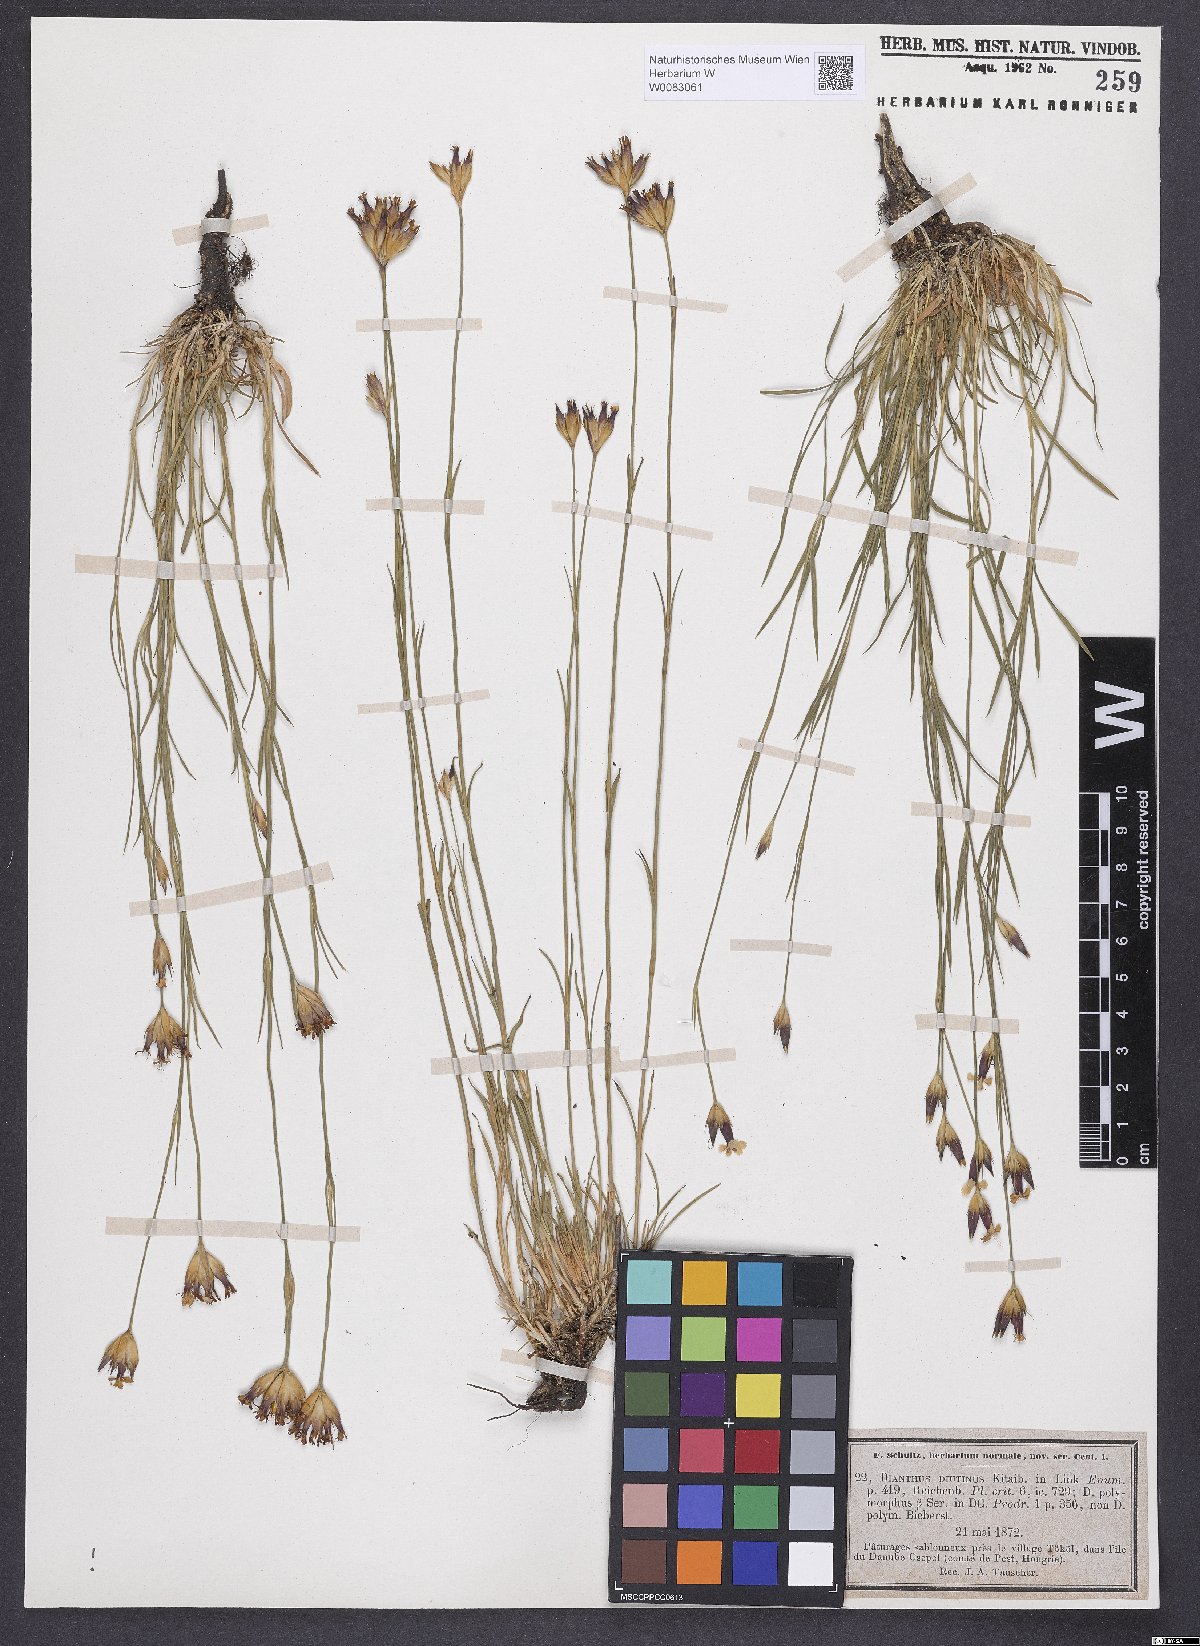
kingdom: Plantae
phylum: Tracheophyta
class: Magnoliopsida
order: Caryophyllales
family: Caryophyllaceae
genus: Dianthus
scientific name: Dianthus polymorphus
